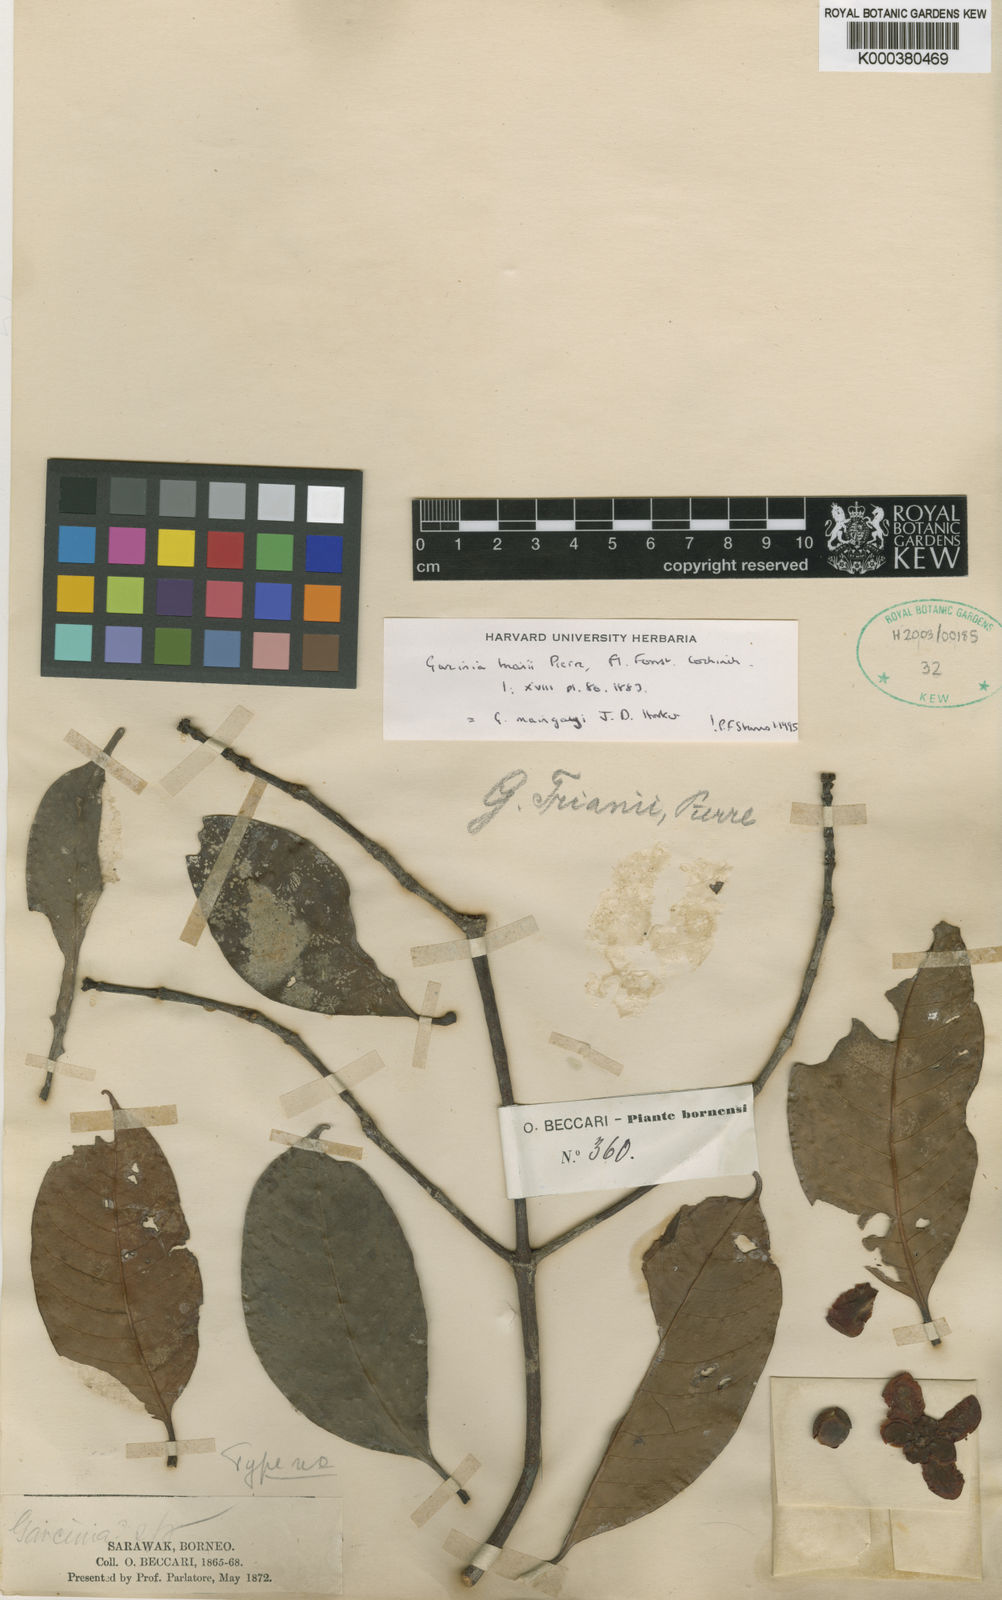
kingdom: Plantae
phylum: Tracheophyta
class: Magnoliopsida
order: Malpighiales
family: Clusiaceae
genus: Garcinia
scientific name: Garcinia
